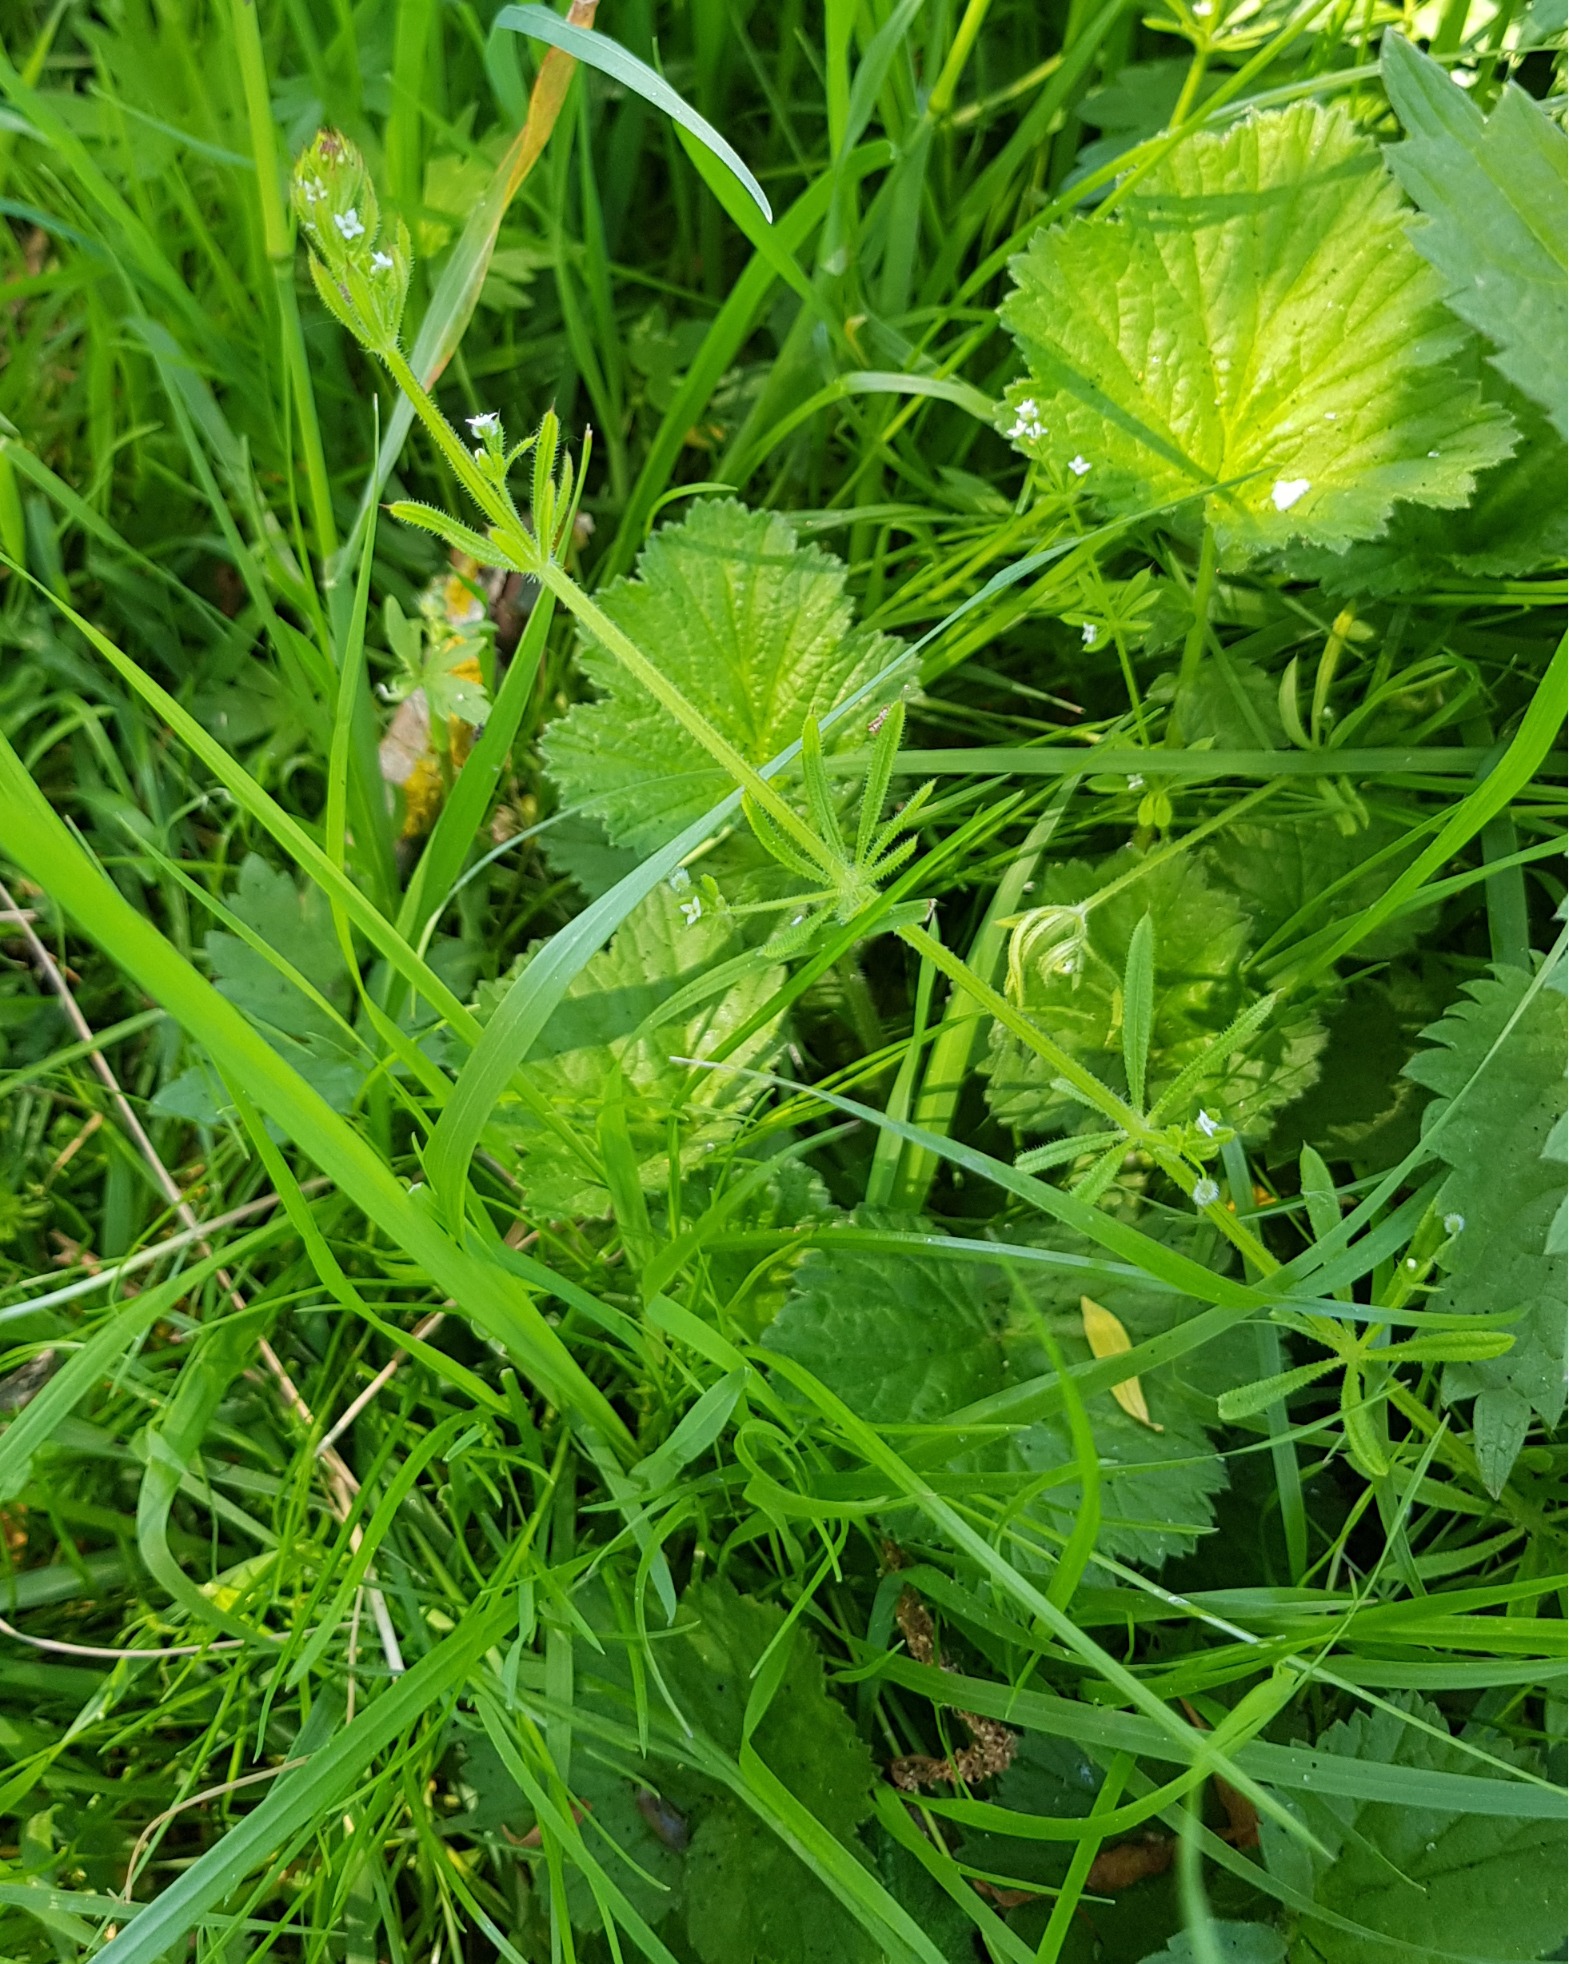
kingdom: Plantae
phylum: Tracheophyta
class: Magnoliopsida
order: Gentianales
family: Rubiaceae
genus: Galium
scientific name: Galium aparine
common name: Burre-snerre
